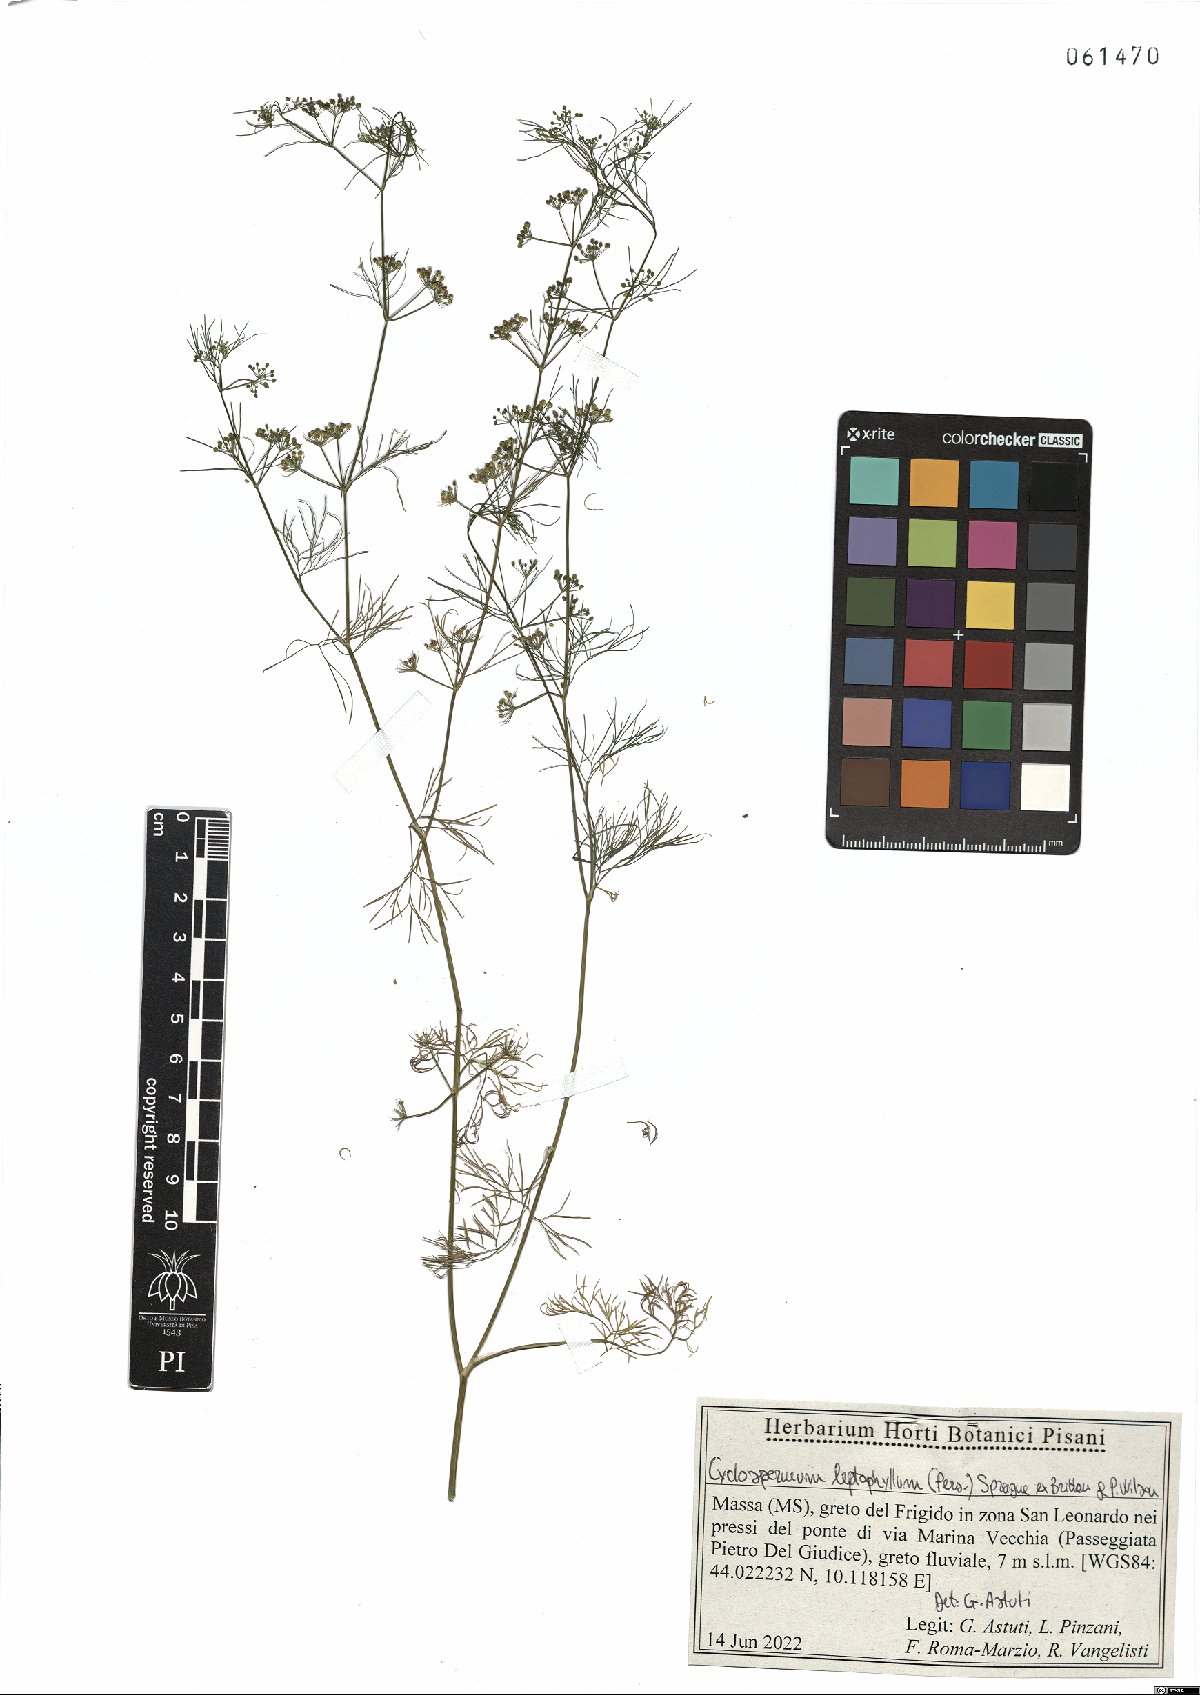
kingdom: Plantae
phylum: Tracheophyta
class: Magnoliopsida
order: Apiales
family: Apiaceae
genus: Cyclospermum
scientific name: Cyclospermum leptophyllum
